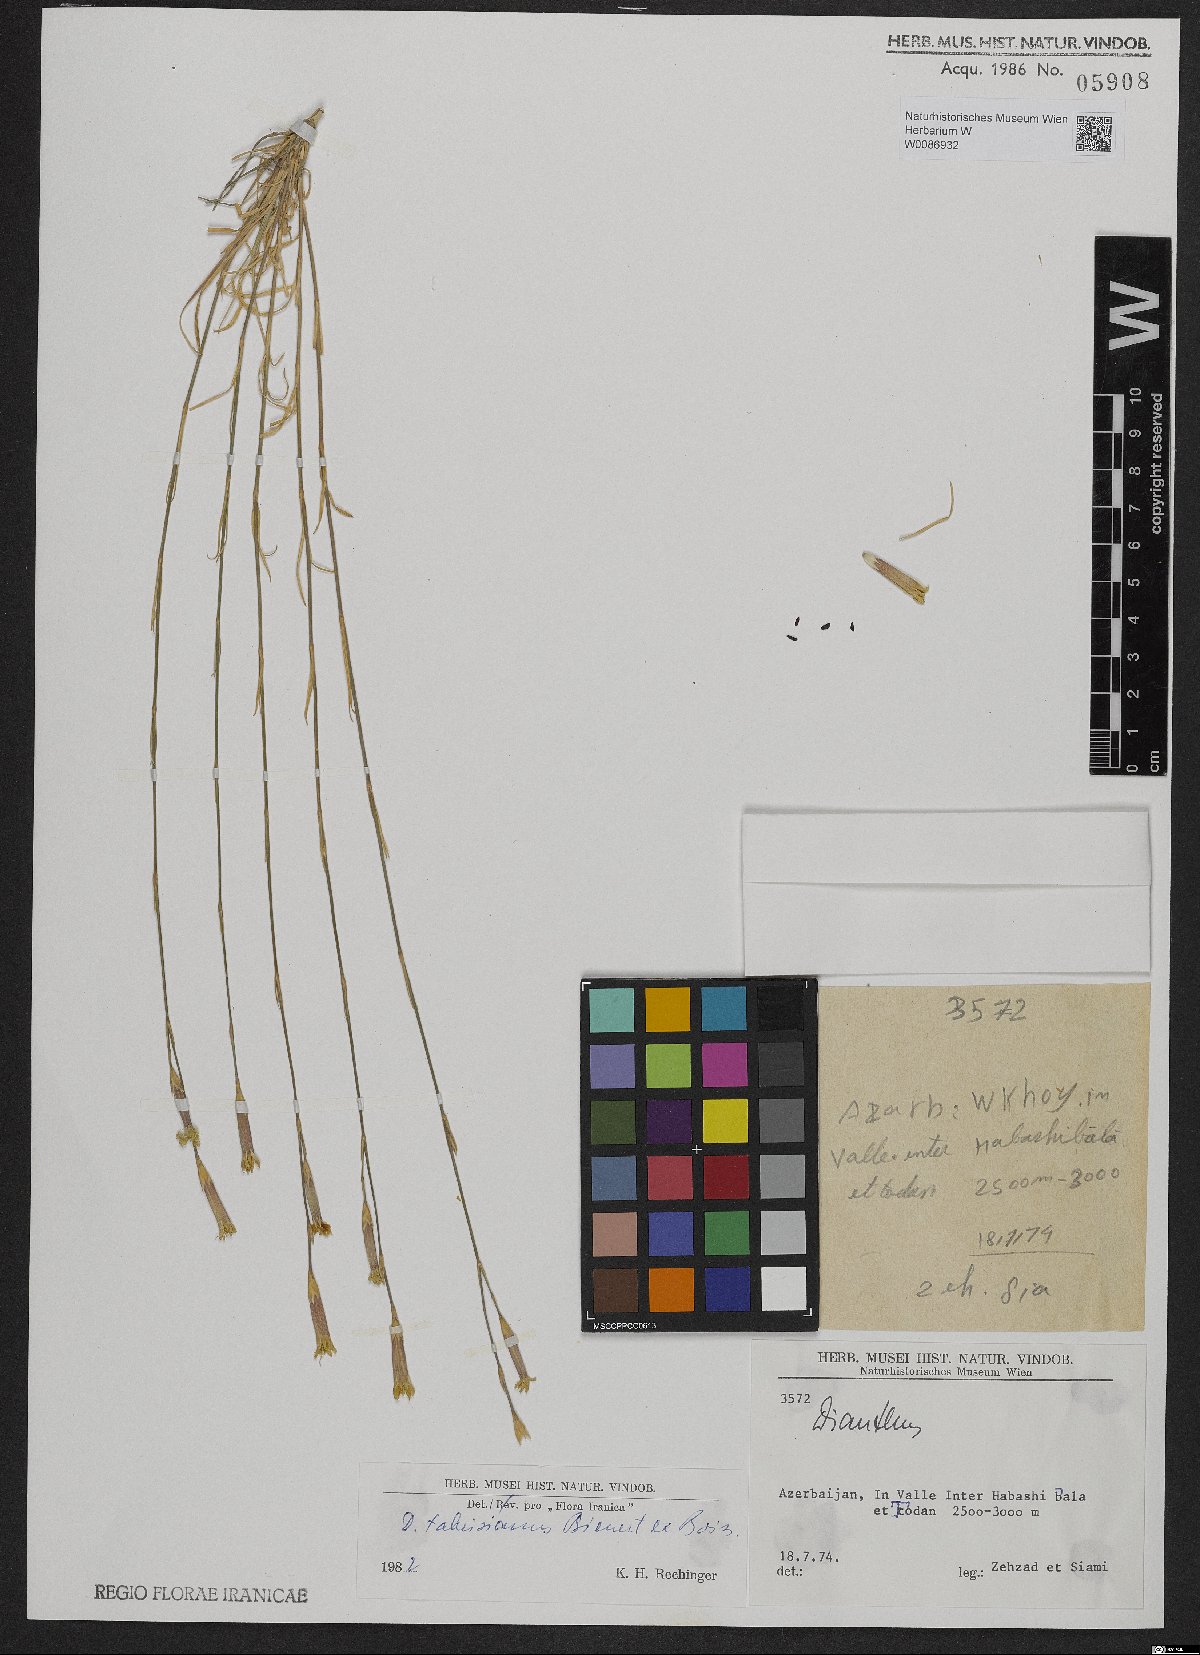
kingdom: Plantae
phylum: Tracheophyta
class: Magnoliopsida
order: Caryophyllales
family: Caryophyllaceae
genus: Dianthus
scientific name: Dianthus tabrisianus
